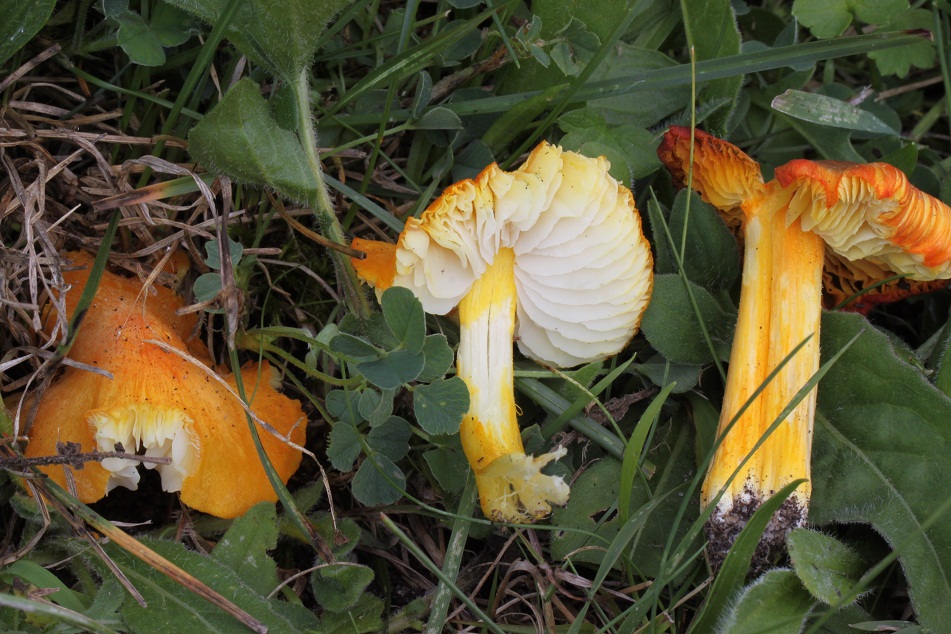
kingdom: Fungi
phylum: Basidiomycota
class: Agaricomycetes
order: Agaricales
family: Hygrophoraceae
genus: Hygrocybe
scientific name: Hygrocybe intermedia
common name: trævlet vokshat
